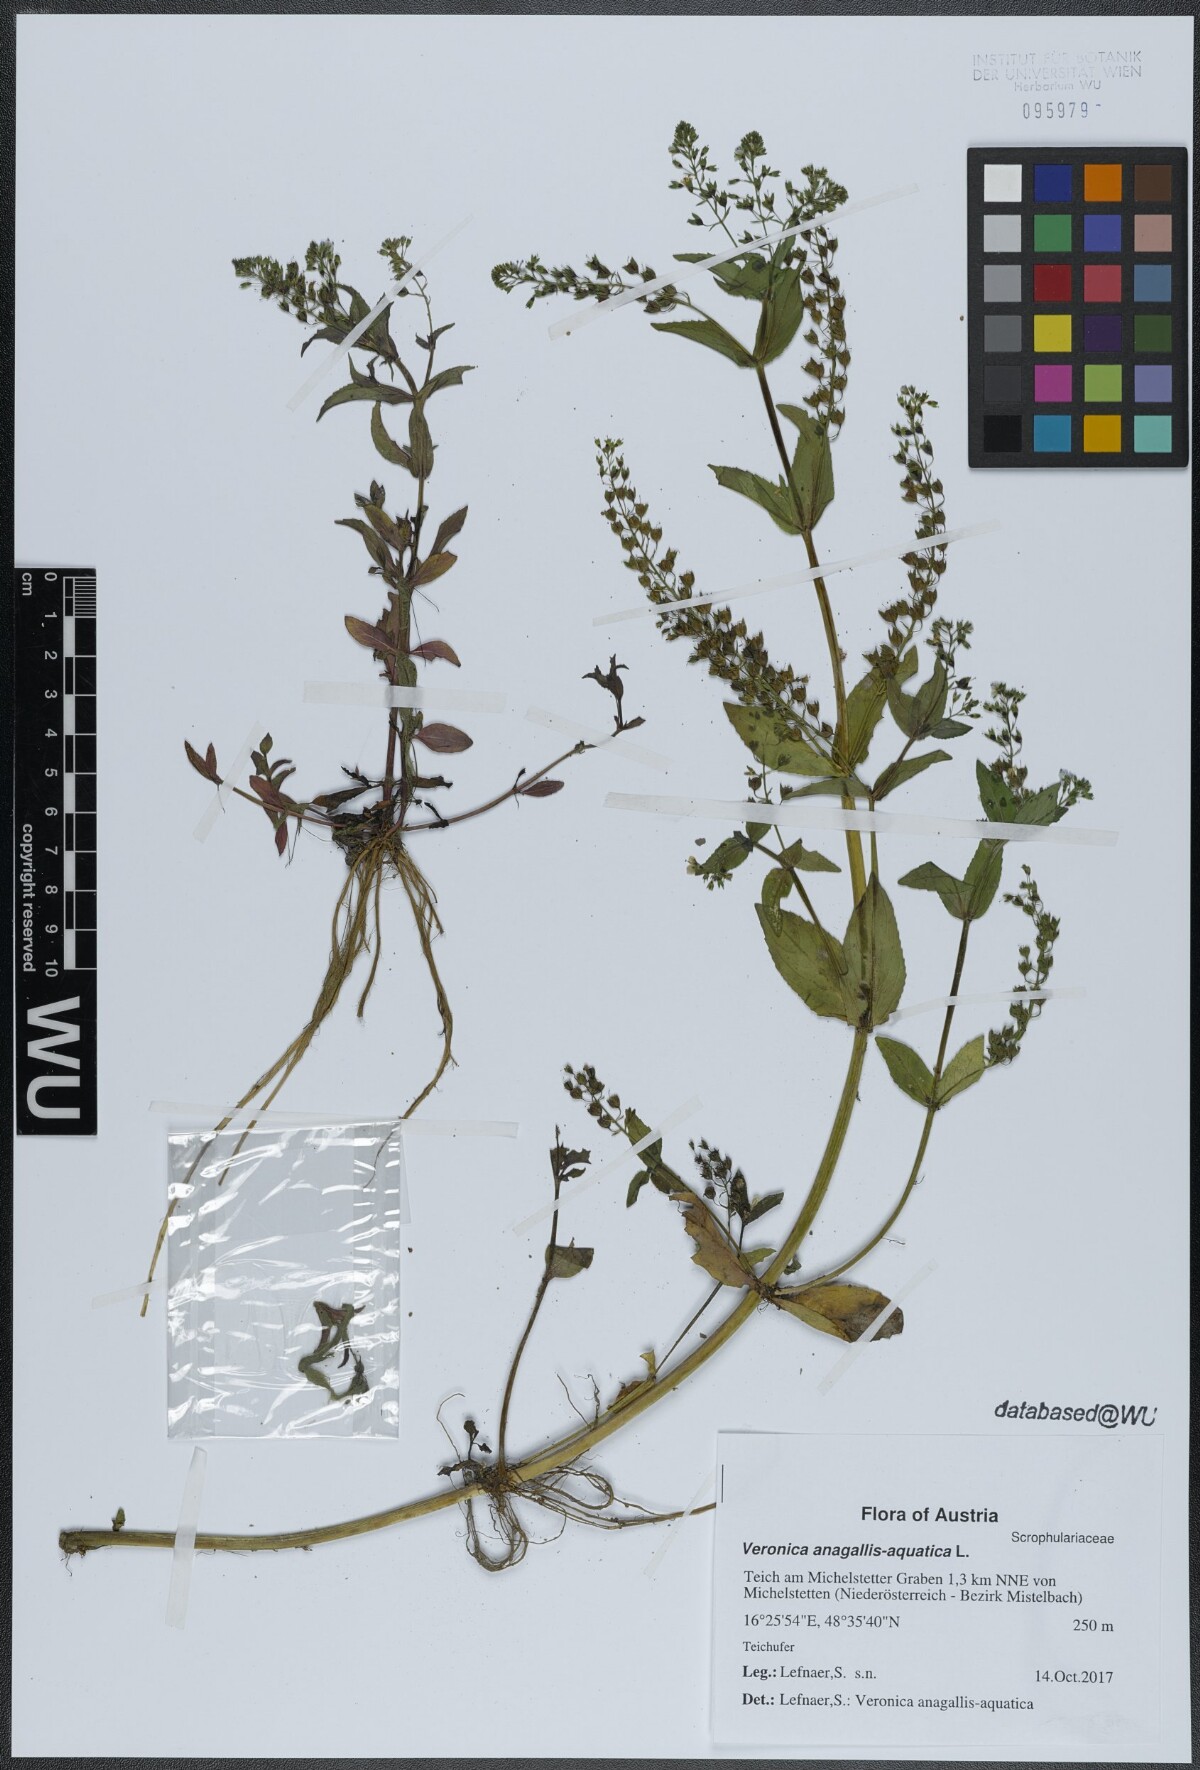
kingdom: Plantae
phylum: Tracheophyta
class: Magnoliopsida
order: Lamiales
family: Plantaginaceae
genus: Veronica
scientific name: Veronica anagallis-aquatica
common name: Water speedwell
